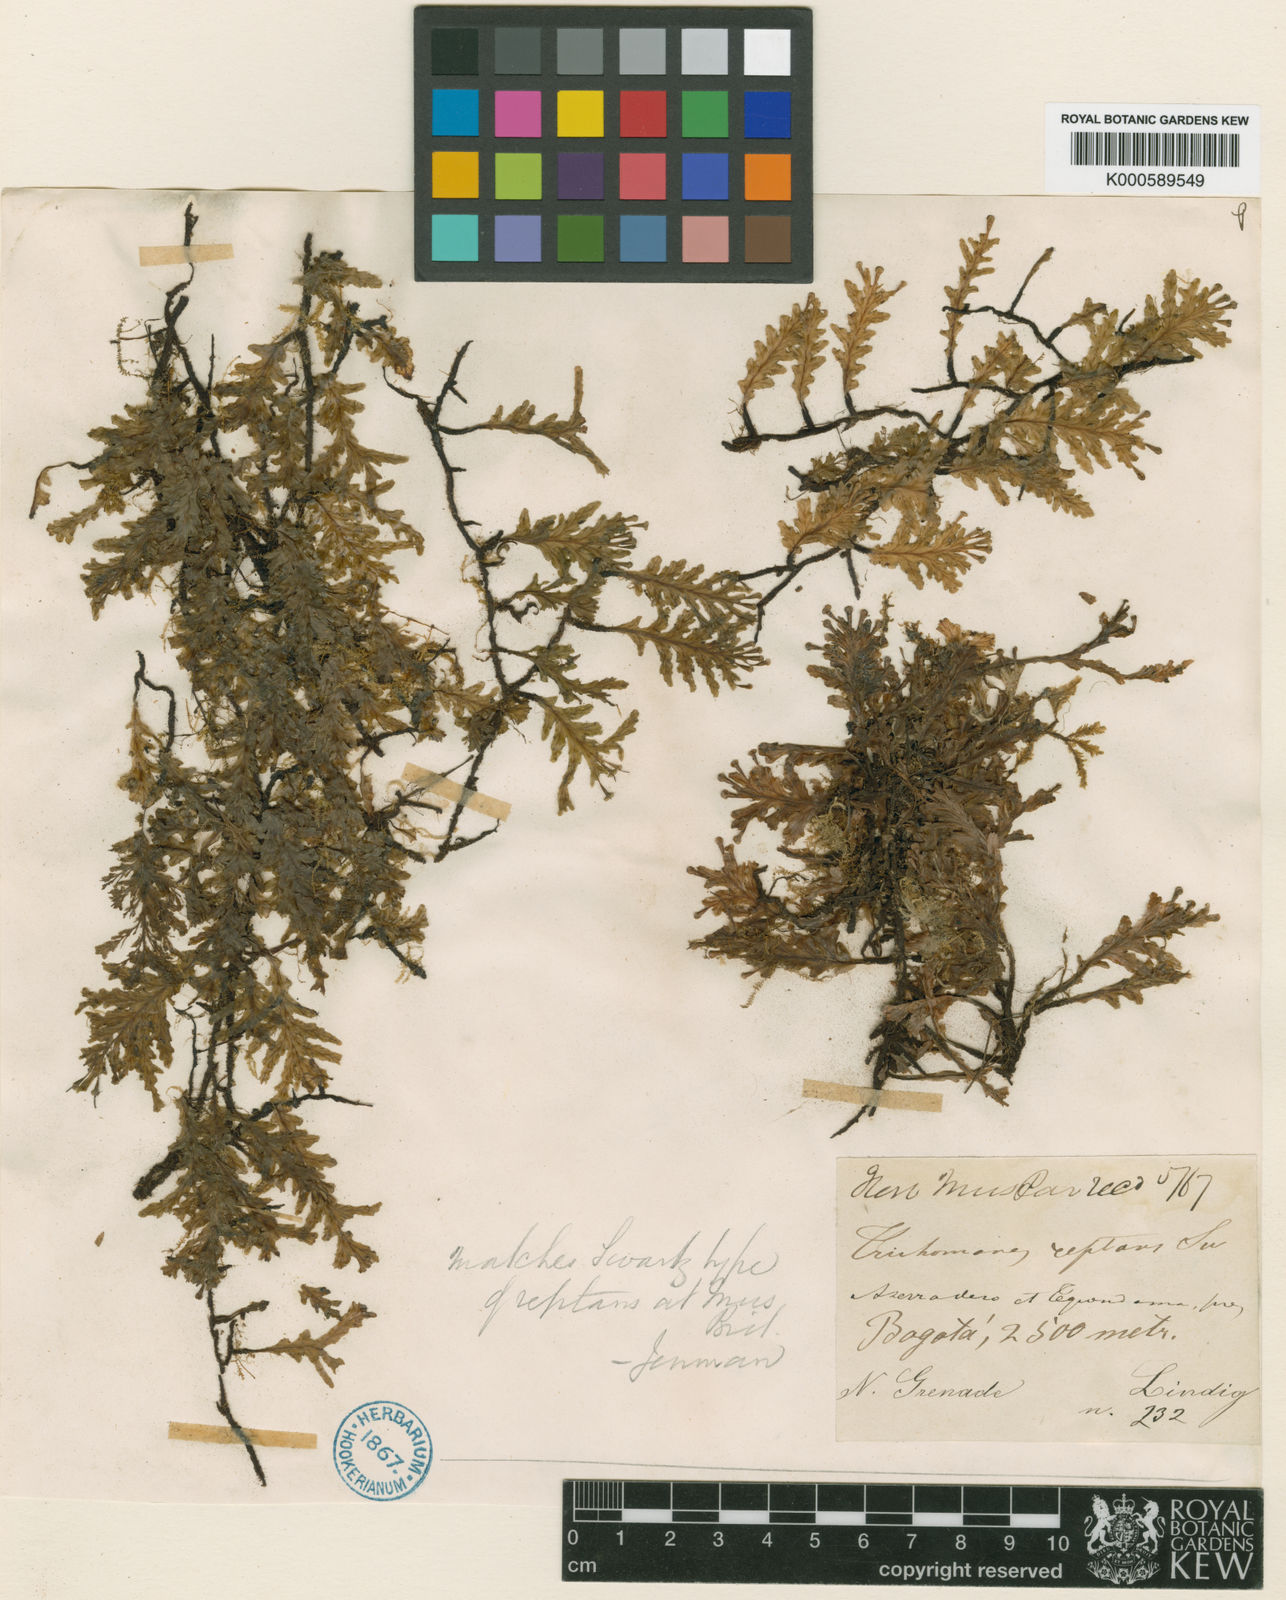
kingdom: Plantae
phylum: Tracheophyta
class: Polypodiopsida
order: Hymenophyllales
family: Hymenophyllaceae
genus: Didymoglossum
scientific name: Didymoglossum reptans
